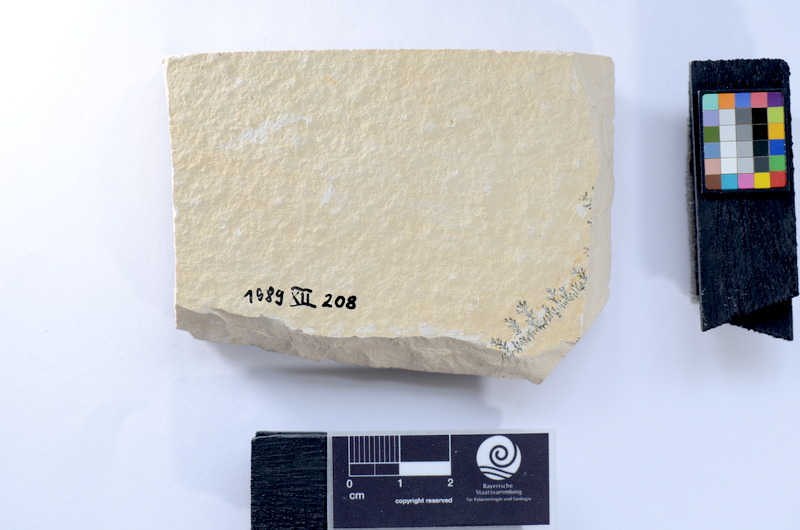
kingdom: Animalia
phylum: Chordata
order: Salmoniformes
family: Orthogonikleithridae
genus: Leptolepides
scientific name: Leptolepides
